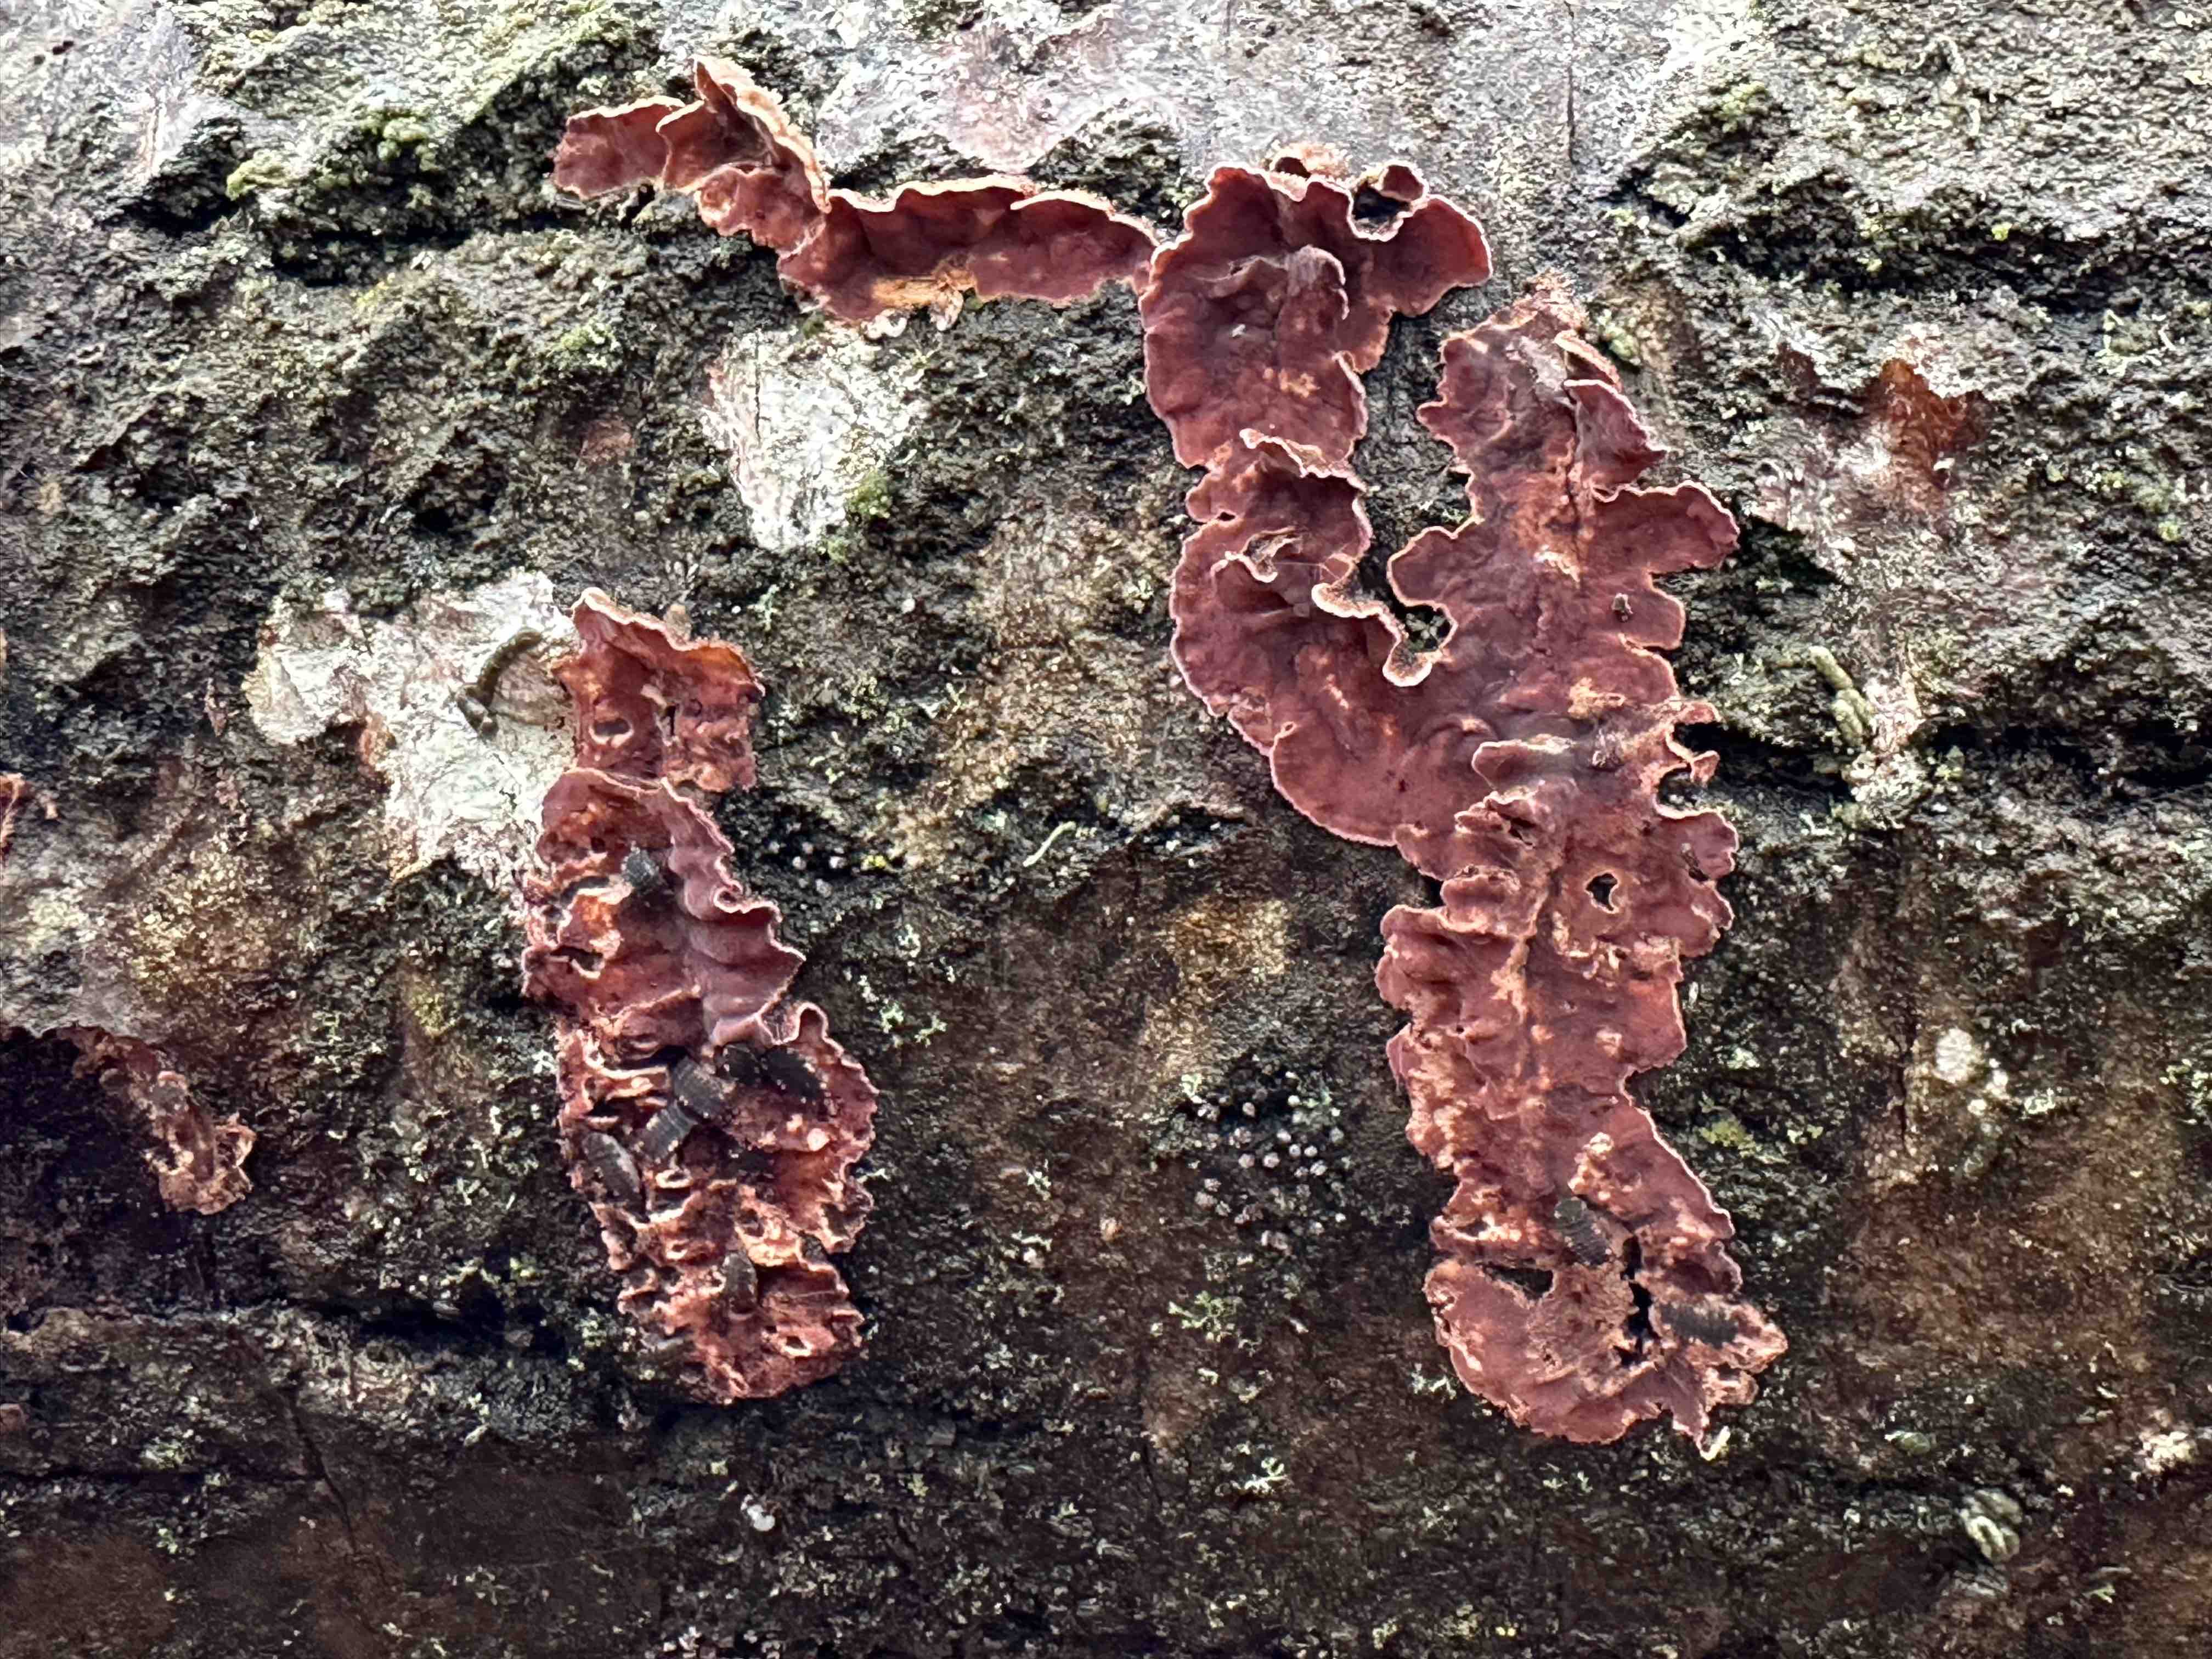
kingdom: Fungi
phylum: Basidiomycota
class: Agaricomycetes
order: Agaricales
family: Cyphellaceae
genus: Chondrostereum
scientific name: Chondrostereum purpureum
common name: purpurlædersvamp
